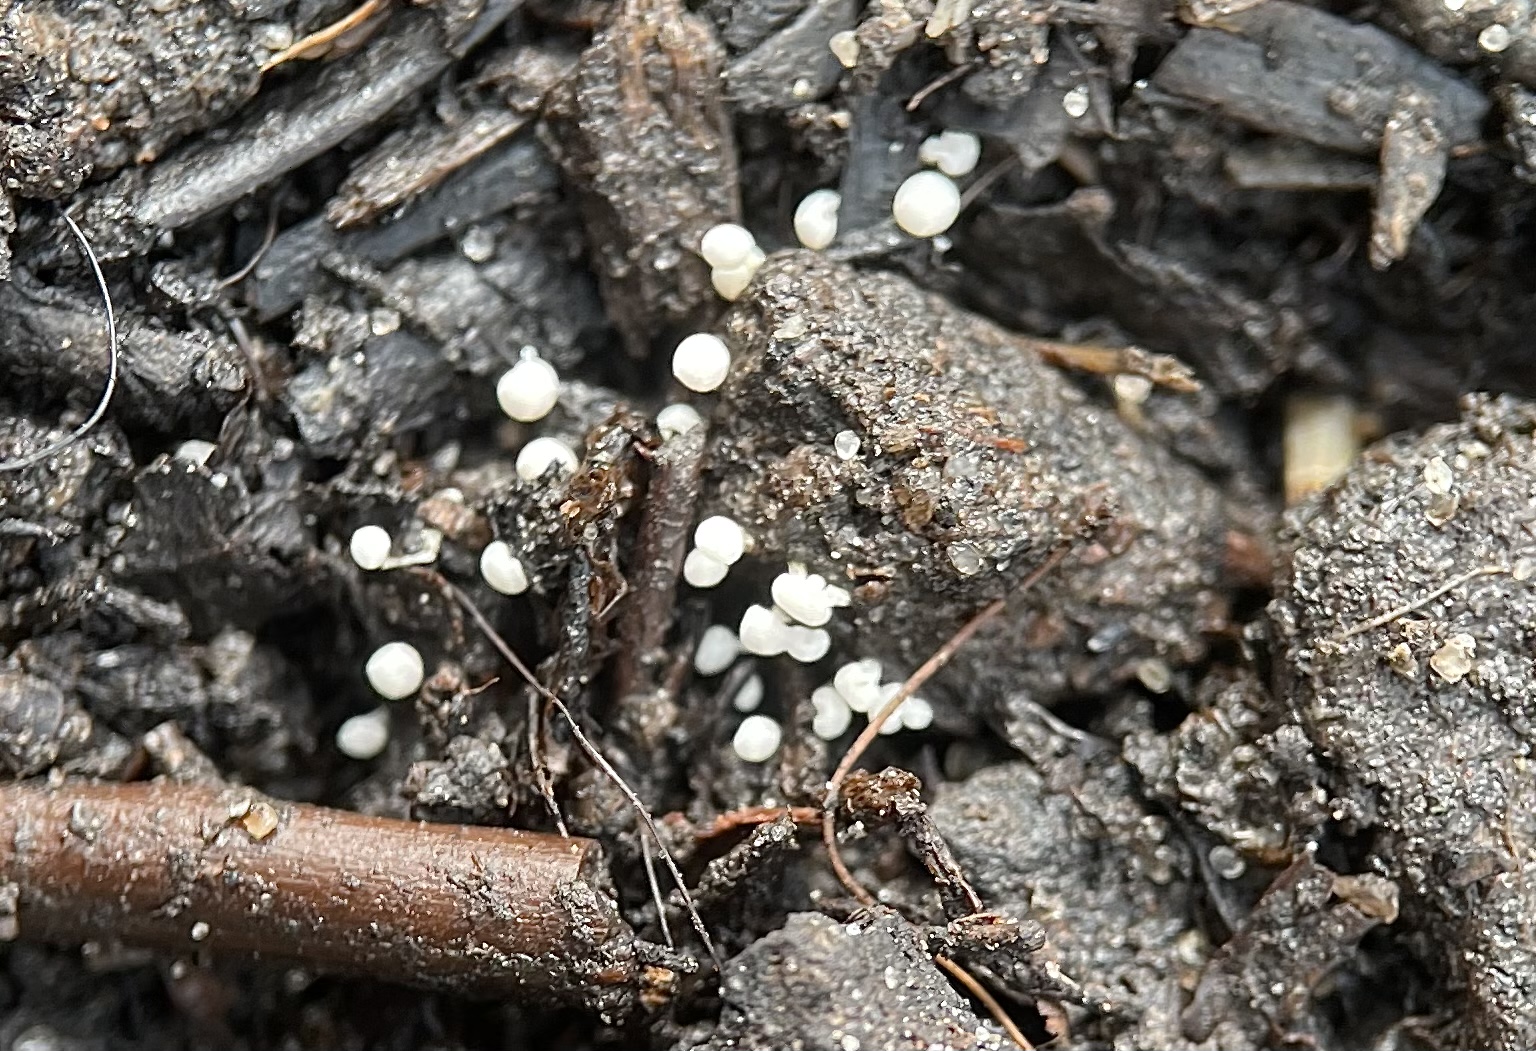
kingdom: Protozoa
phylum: Mycetozoa
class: Myxomycetes
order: Physarales
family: Physaraceae
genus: Physarum
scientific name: Physarum
